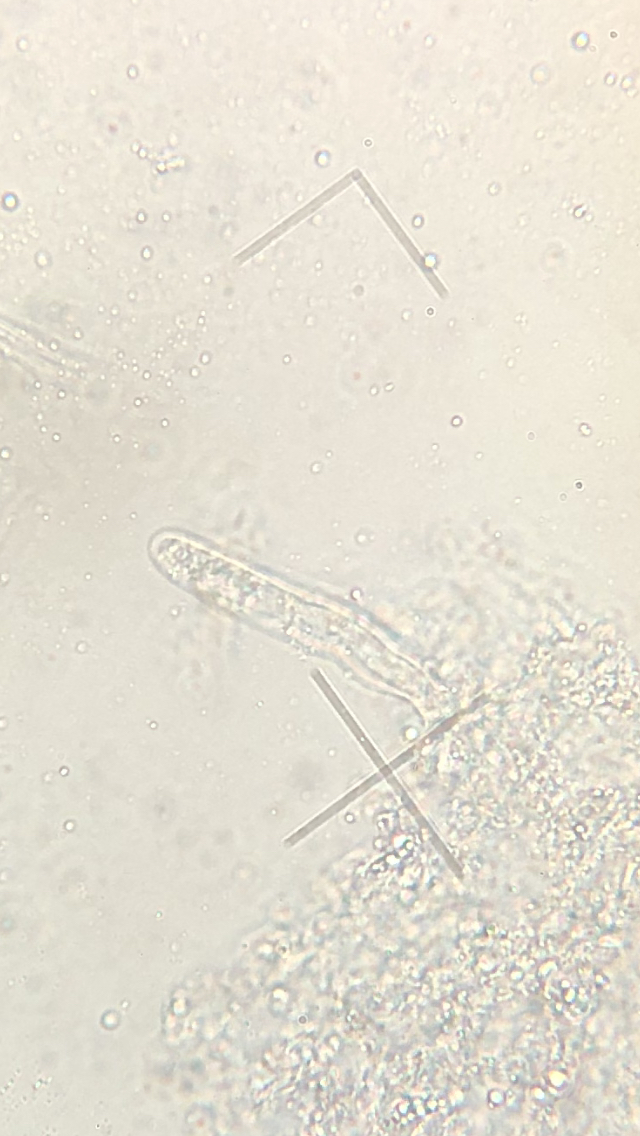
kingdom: Fungi
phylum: Basidiomycota
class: Agaricomycetes
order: Corticiales
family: Vuilleminiaceae
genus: Vuilleminia
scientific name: Vuilleminia coryli
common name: hassel-barksprænger
